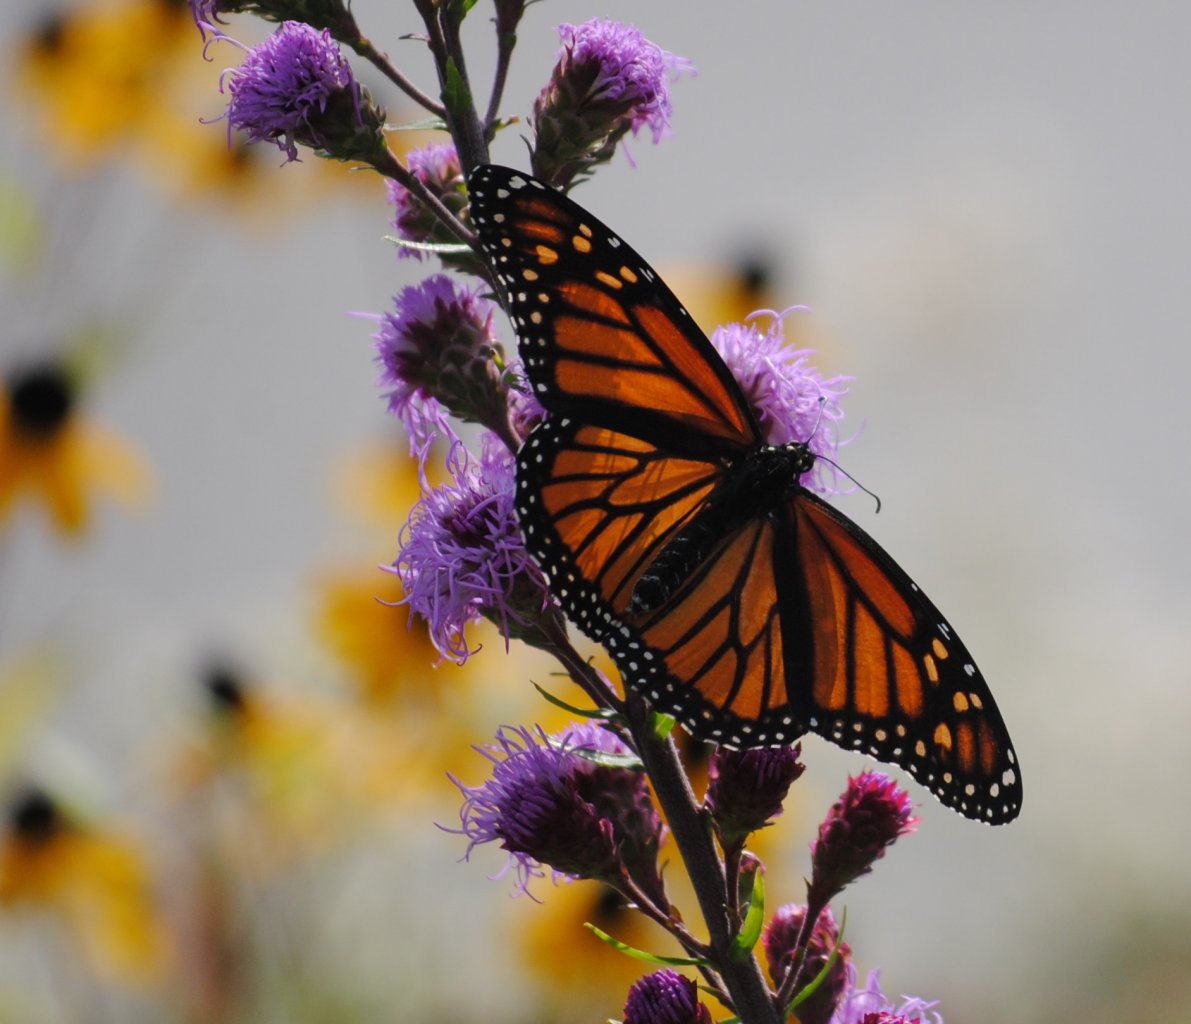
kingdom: Animalia
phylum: Arthropoda
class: Insecta
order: Lepidoptera
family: Nymphalidae
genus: Danaus
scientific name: Danaus plexippus
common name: Monarch
